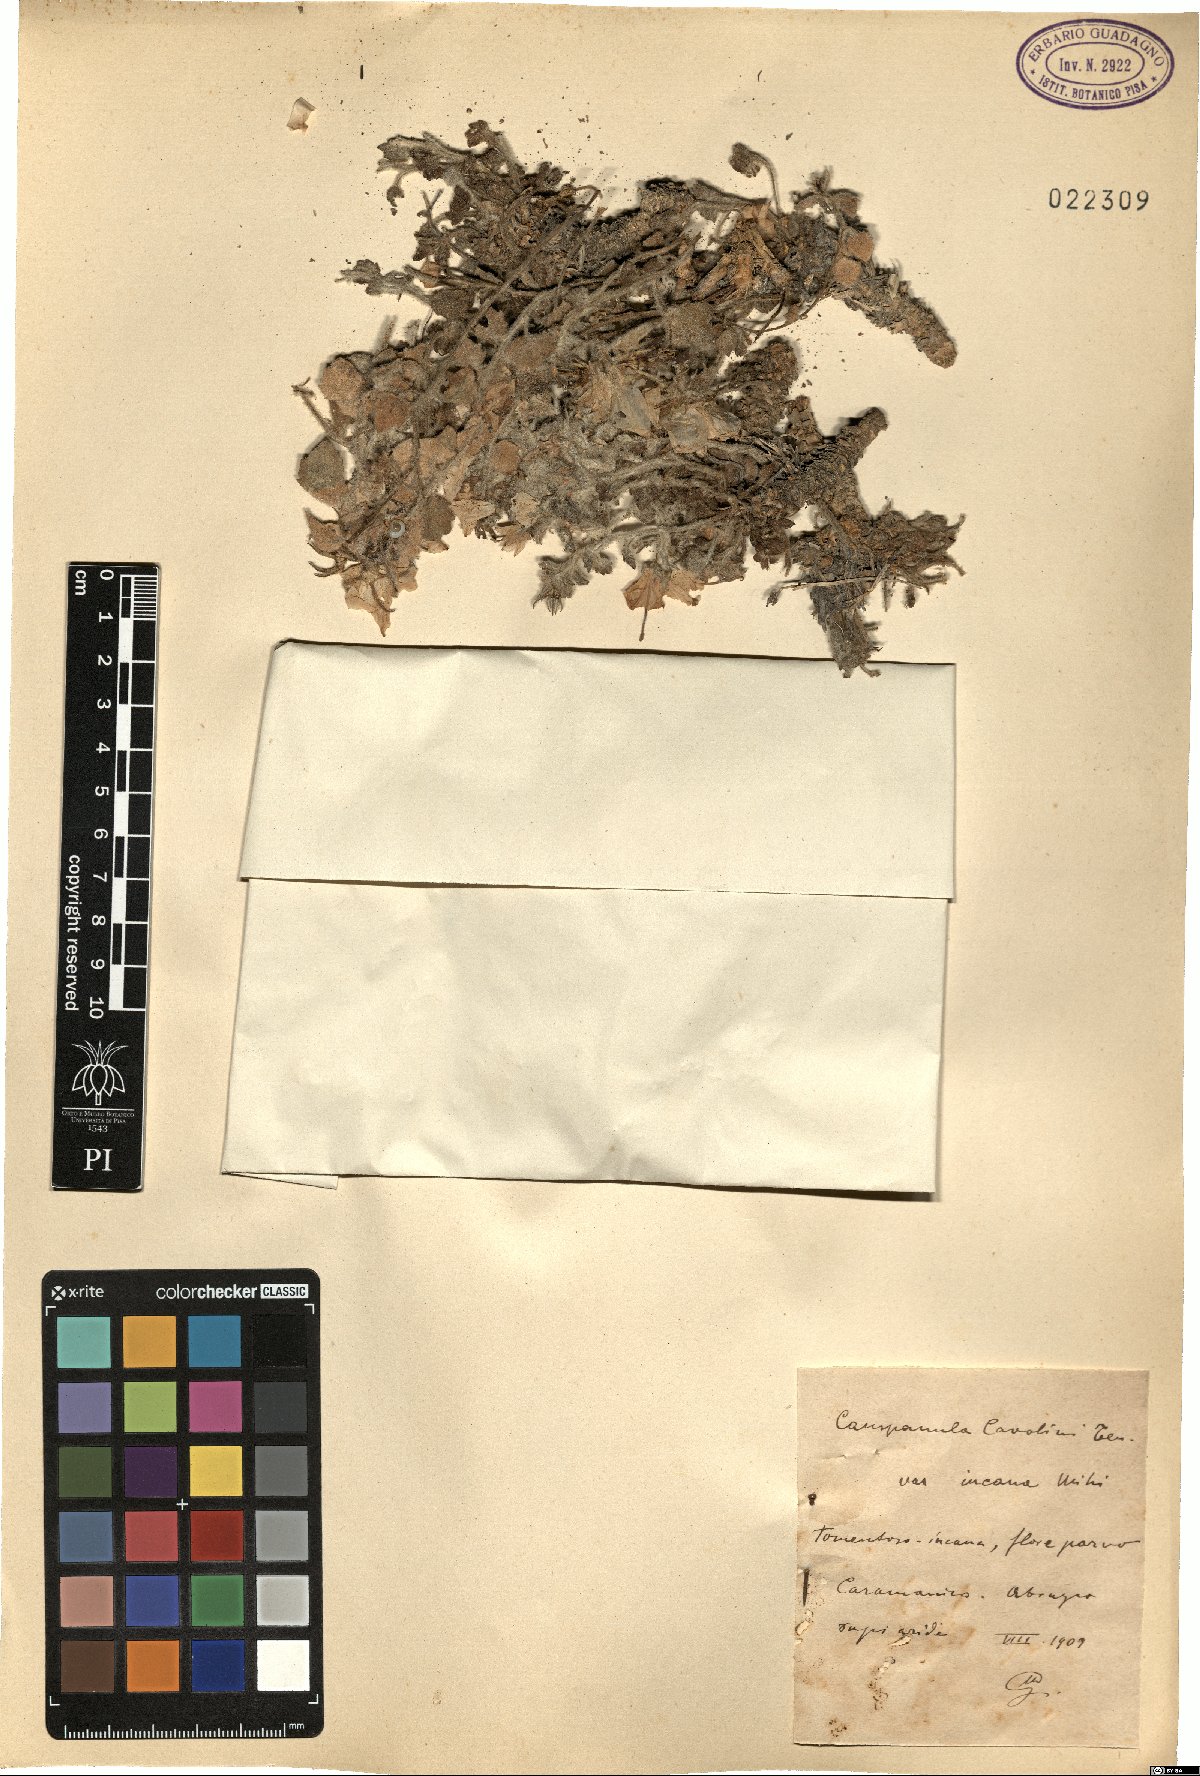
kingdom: Plantae
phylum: Tracheophyta
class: Magnoliopsida
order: Asterales
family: Campanulaceae
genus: Campanula
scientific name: Campanula fragilis
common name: Italian bellflower
